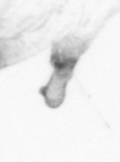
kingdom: Animalia
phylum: Annelida
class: Polychaeta
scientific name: Polychaeta
